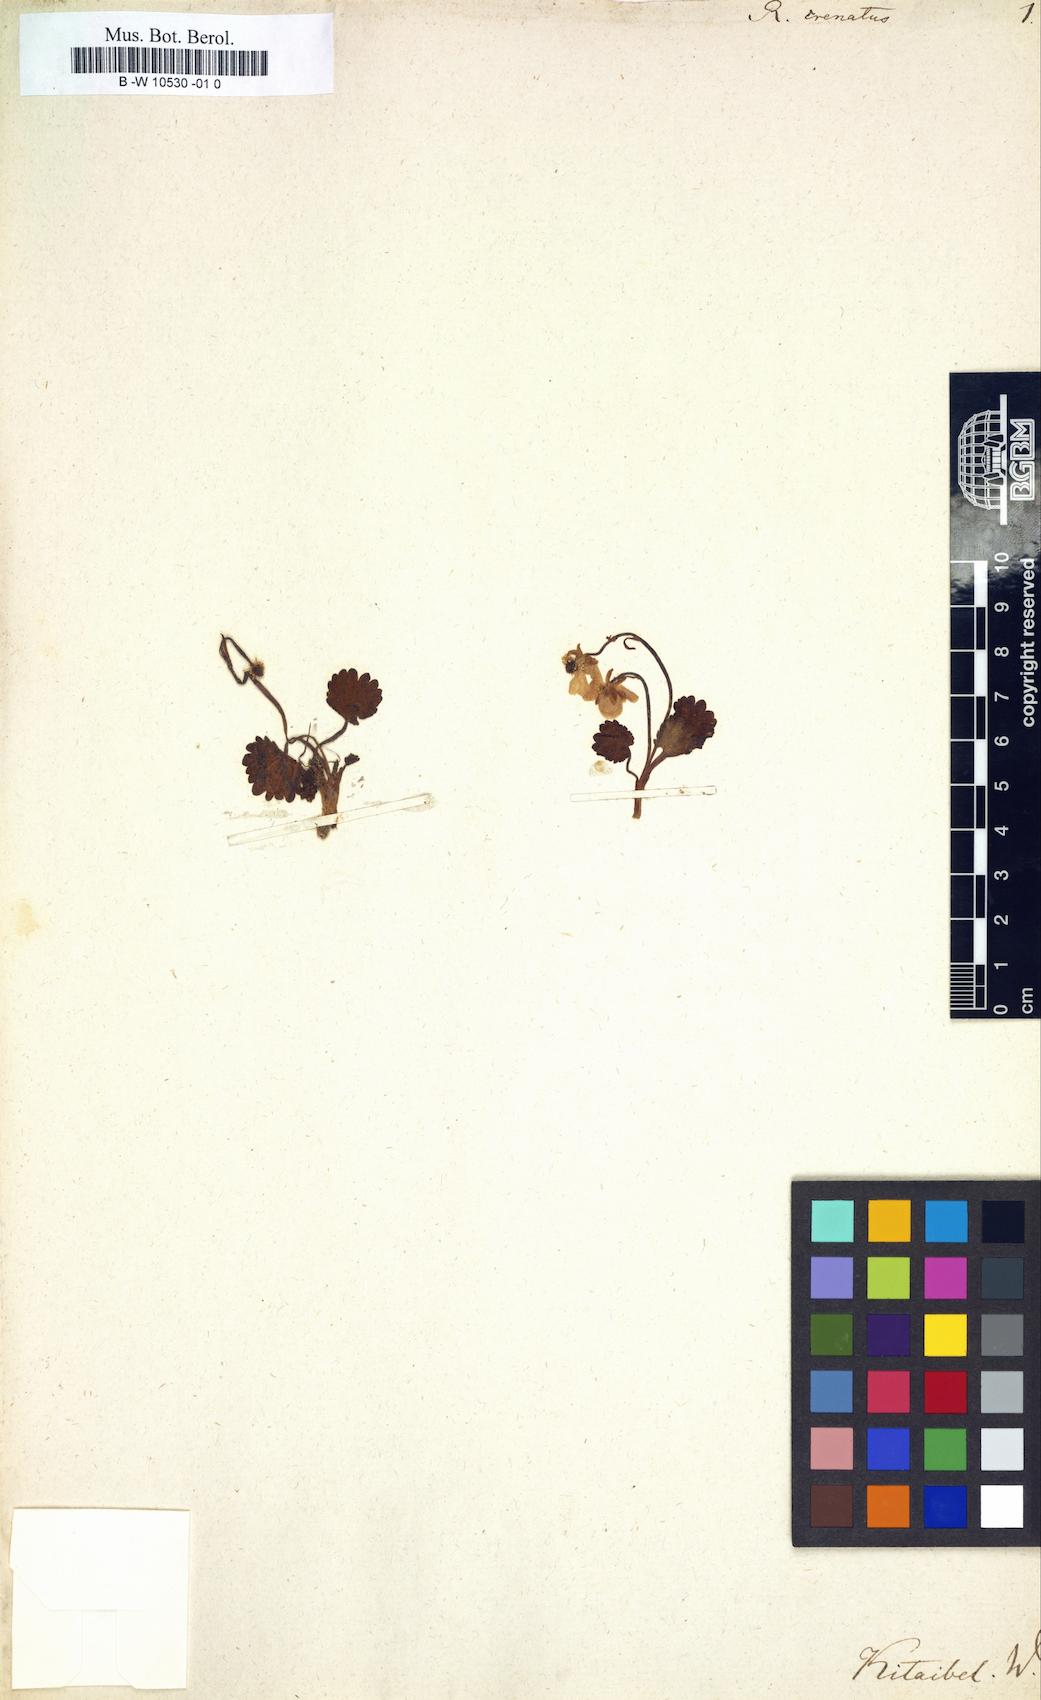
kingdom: Plantae
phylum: Tracheophyta
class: Magnoliopsida
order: Ranunculales
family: Ranunculaceae
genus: Ranunculus
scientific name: Ranunculus crenatus
